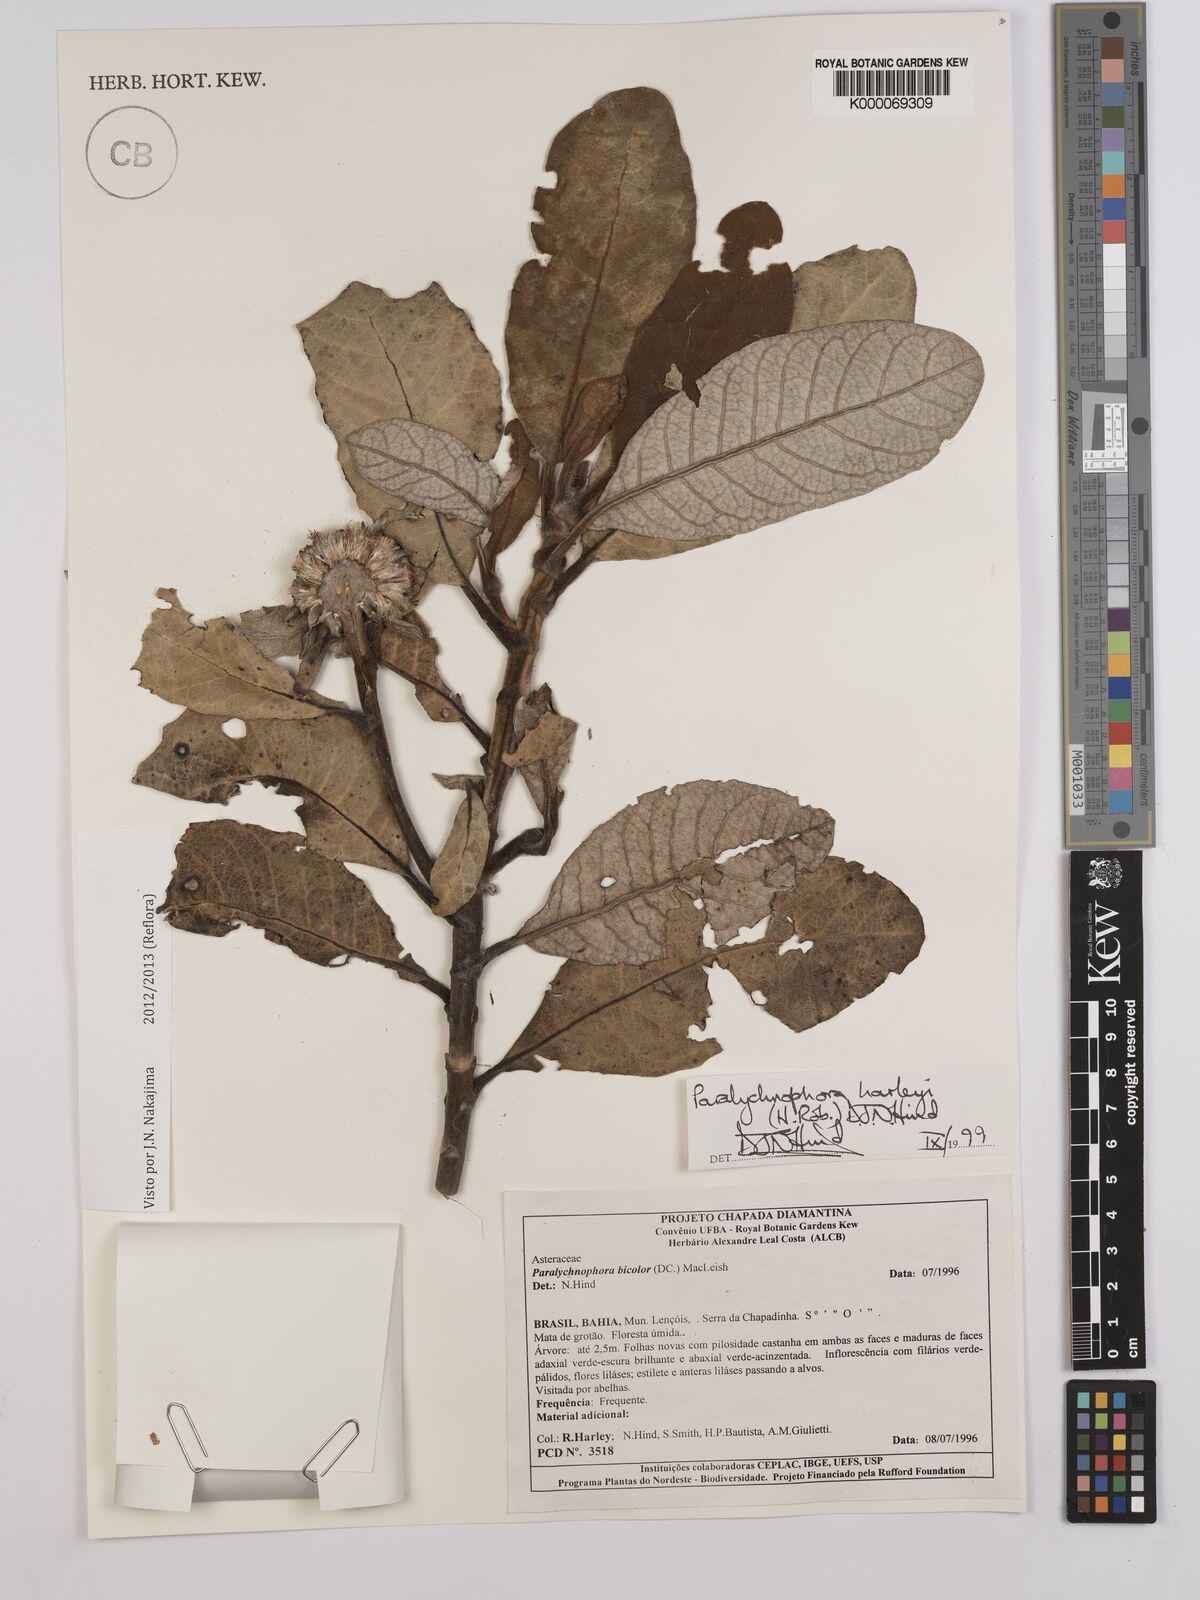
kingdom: Plantae
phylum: Tracheophyta
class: Magnoliopsida
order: Asterales
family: Asteraceae
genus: Paralychnophora
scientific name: Paralychnophora harleyi
